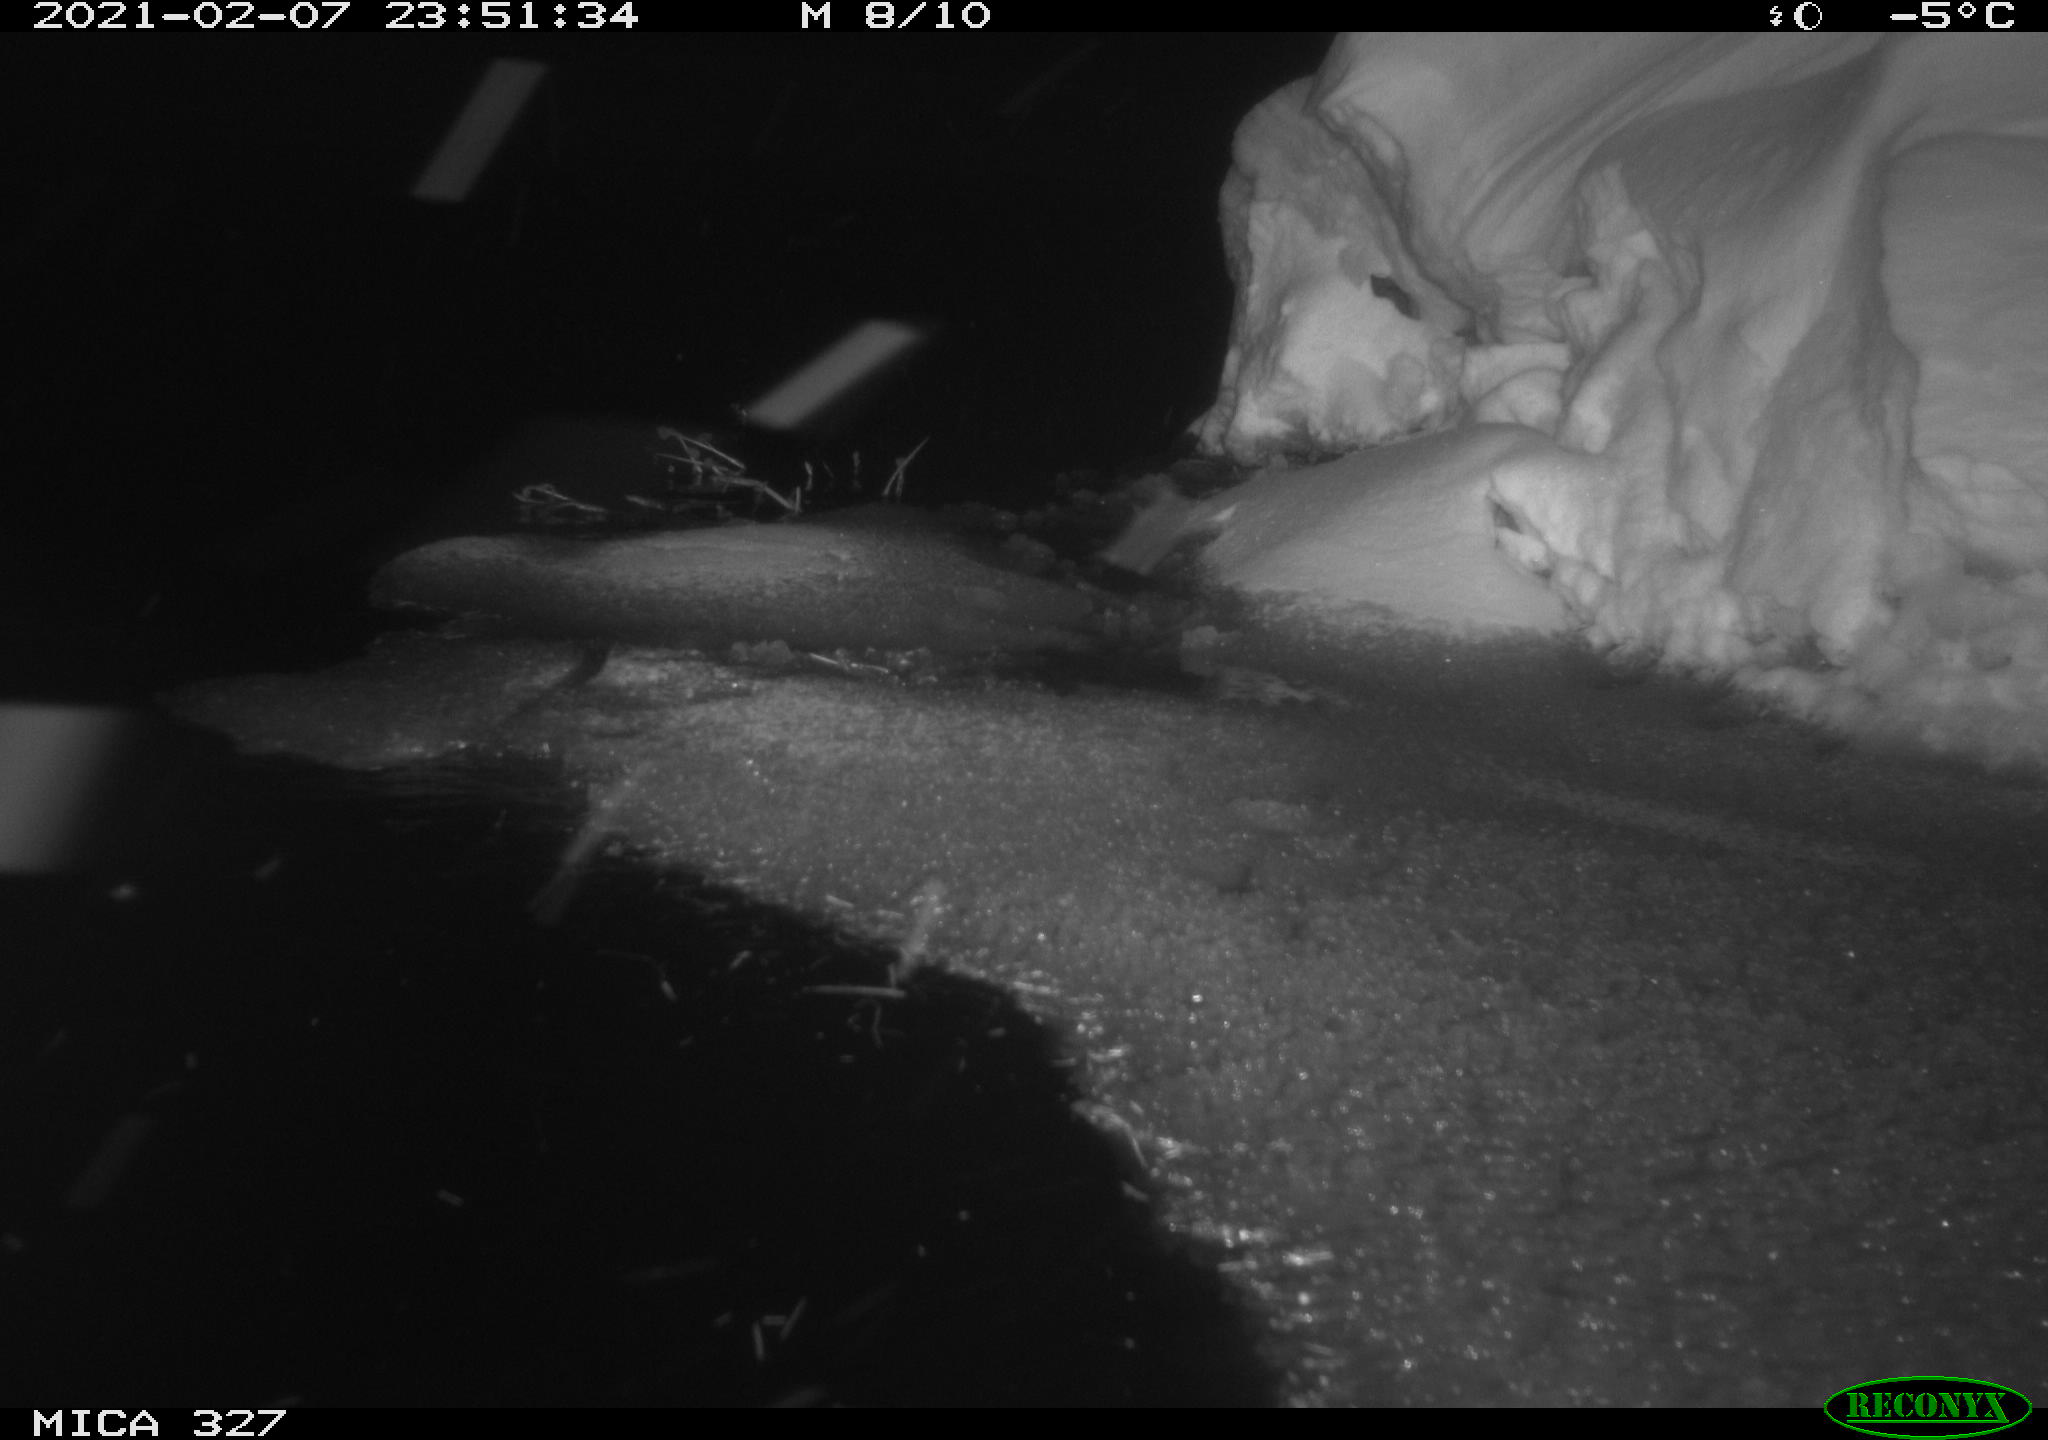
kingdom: Animalia
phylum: Chordata
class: Mammalia
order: Rodentia
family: Cricetidae
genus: Ondatra
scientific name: Ondatra zibethicus
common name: Muskrat
